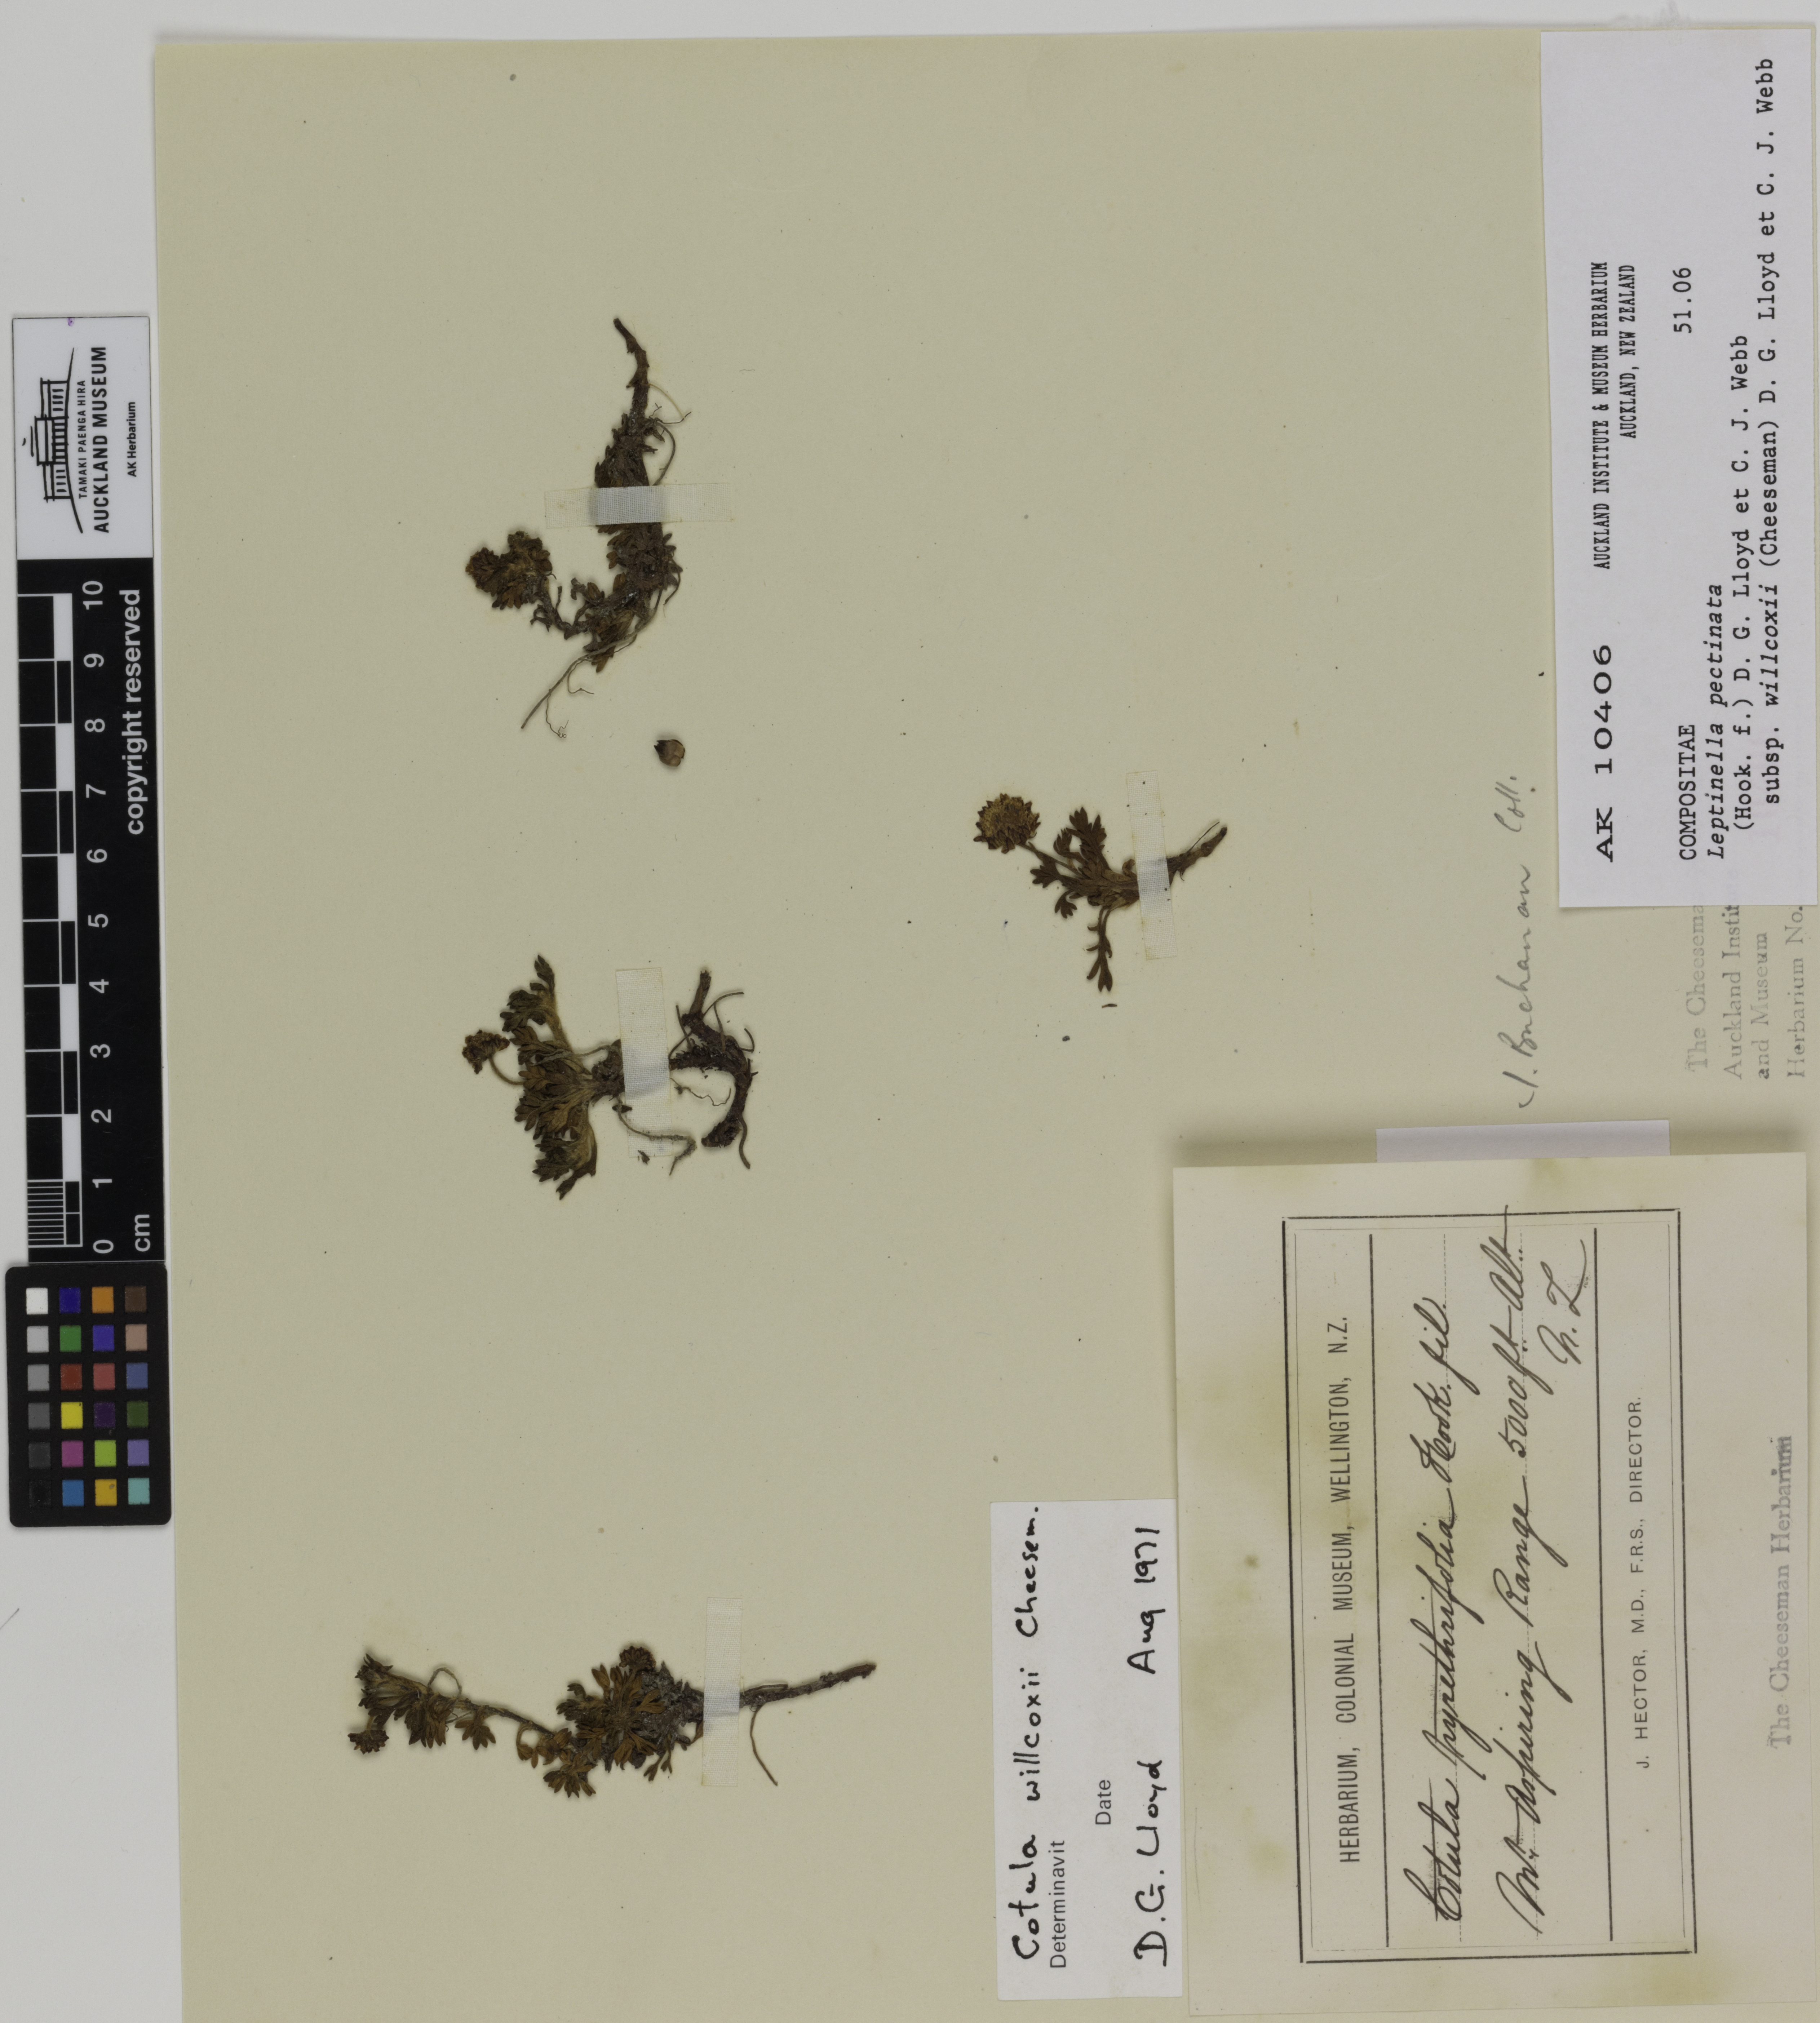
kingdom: Plantae
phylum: Tracheophyta
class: Magnoliopsida
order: Asterales
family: Asteraceae
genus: Leptinella
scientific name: Leptinella pectinata
